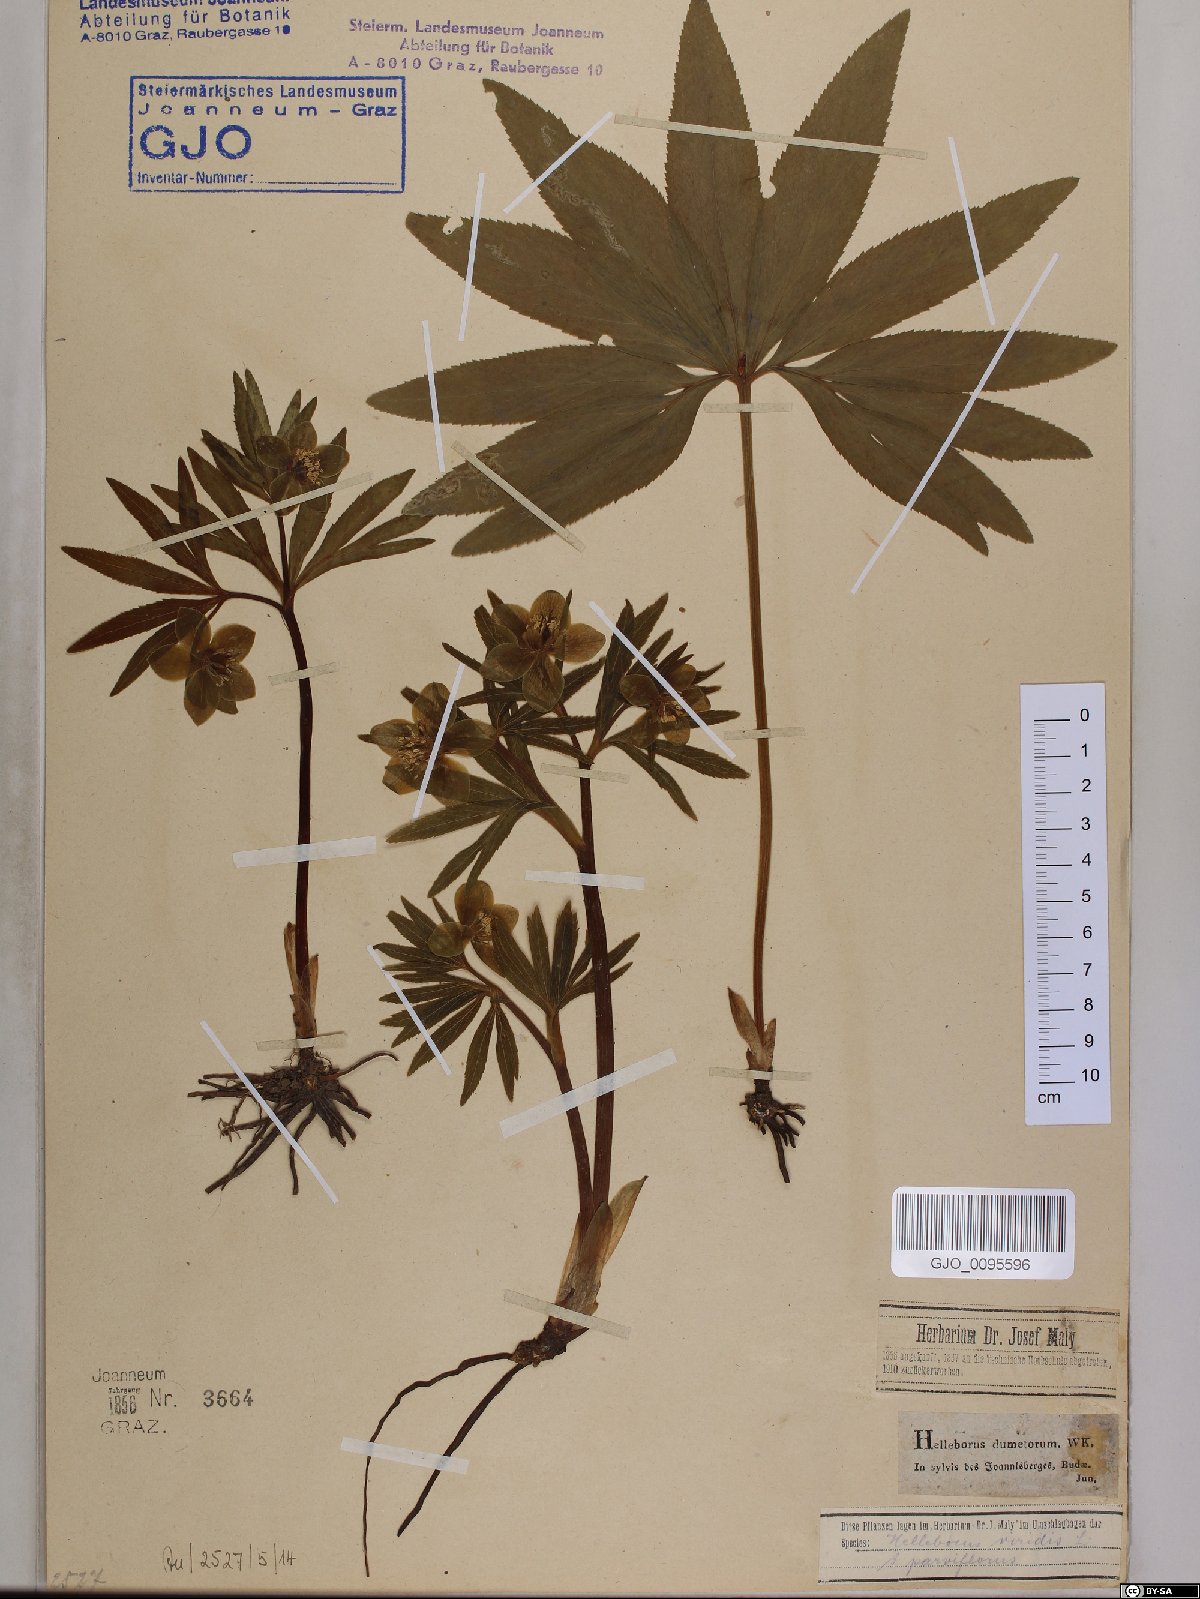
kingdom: Plantae
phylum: Tracheophyta
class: Magnoliopsida
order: Ranunculales
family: Ranunculaceae
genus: Helleborus
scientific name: Helleborus dumetorum
